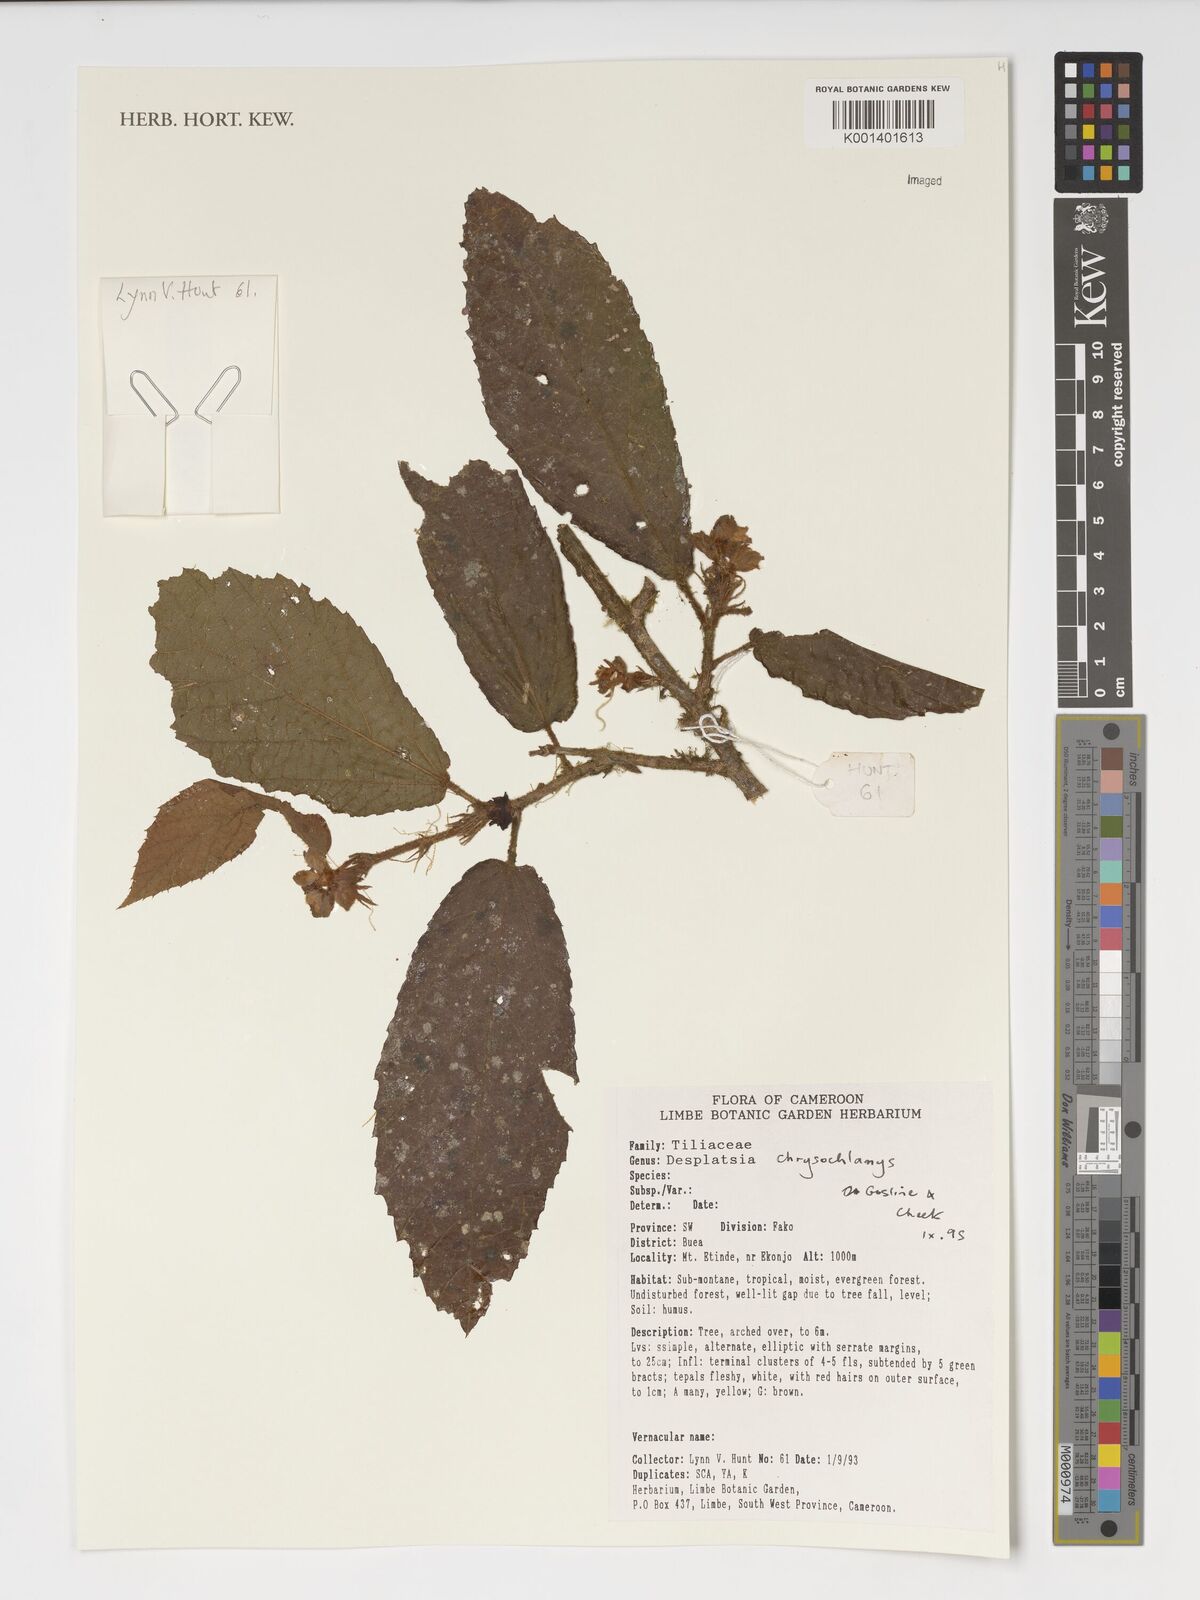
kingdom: Plantae
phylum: Tracheophyta
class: Magnoliopsida
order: Malvales
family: Malvaceae
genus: Desplatsia
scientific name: Desplatsia chrysochlamys
